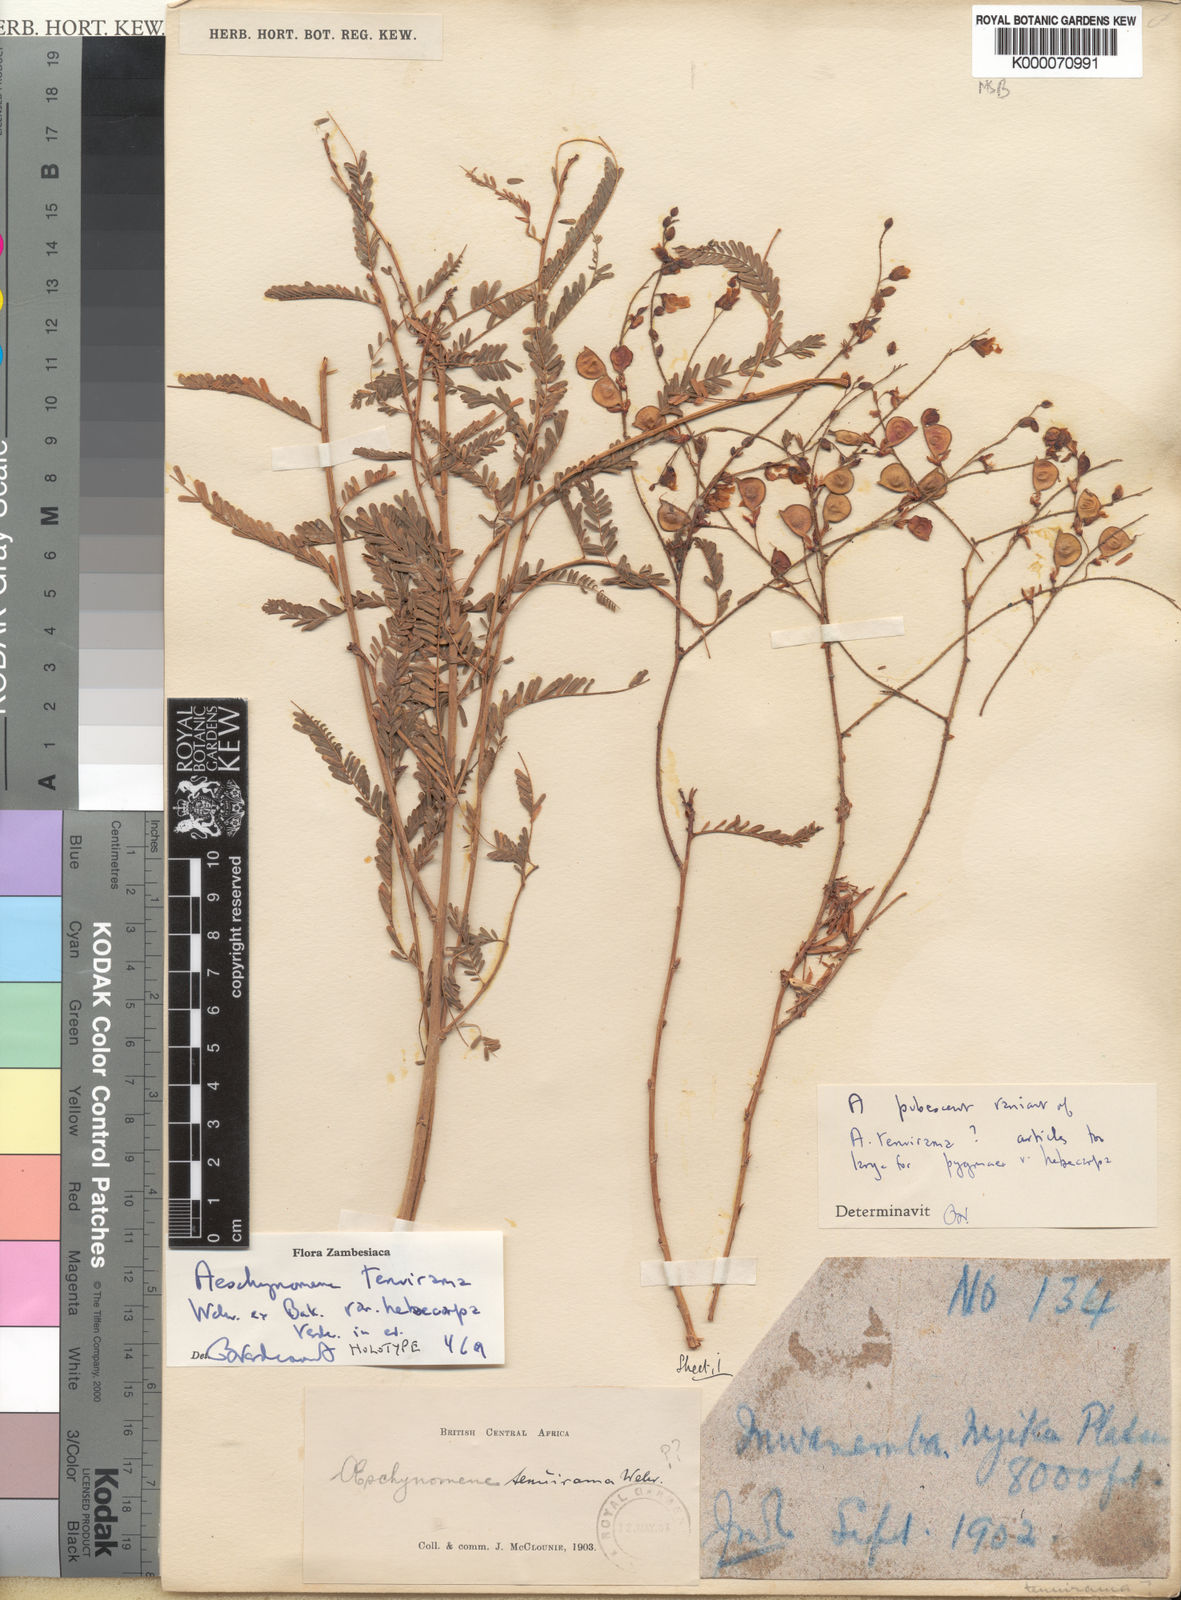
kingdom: Plantae
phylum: Tracheophyta
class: Magnoliopsida
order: Fabales
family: Fabaceae
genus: Aeschynomene
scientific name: Aeschynomene tenuirama
